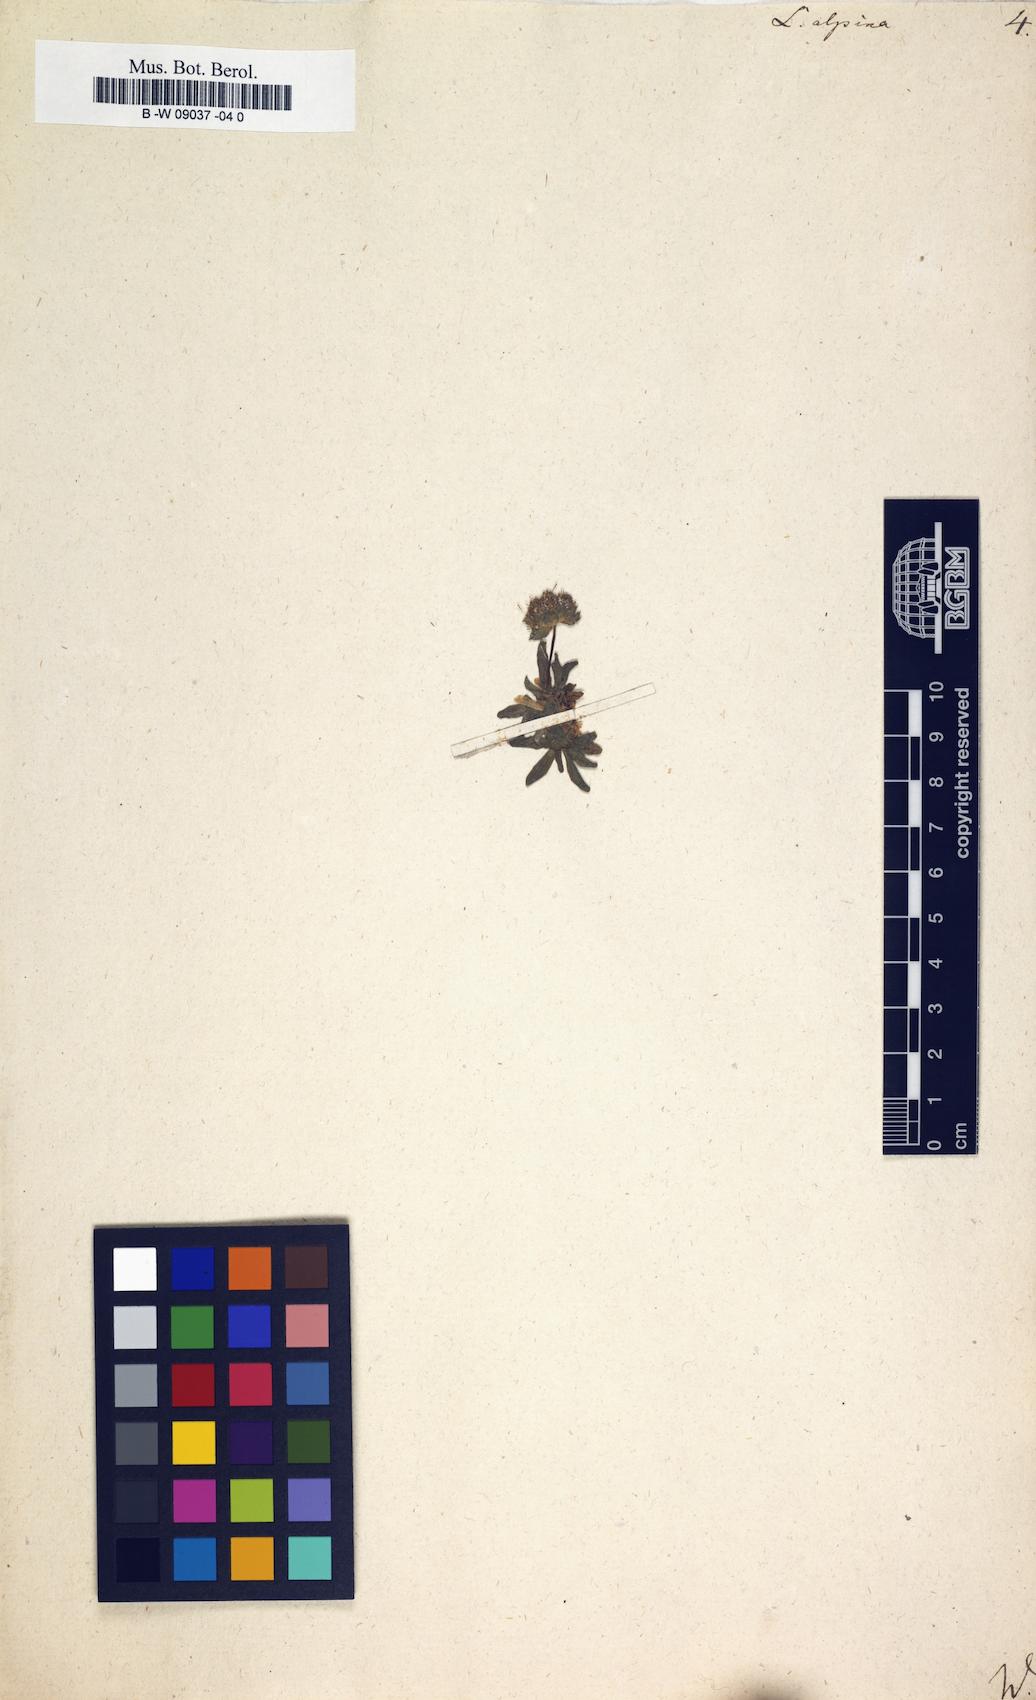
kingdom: Plantae
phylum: Tracheophyta
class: Magnoliopsida
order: Caryophyllales
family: Caryophyllaceae
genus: Viscaria
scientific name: Viscaria alpina
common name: Alpine campion
